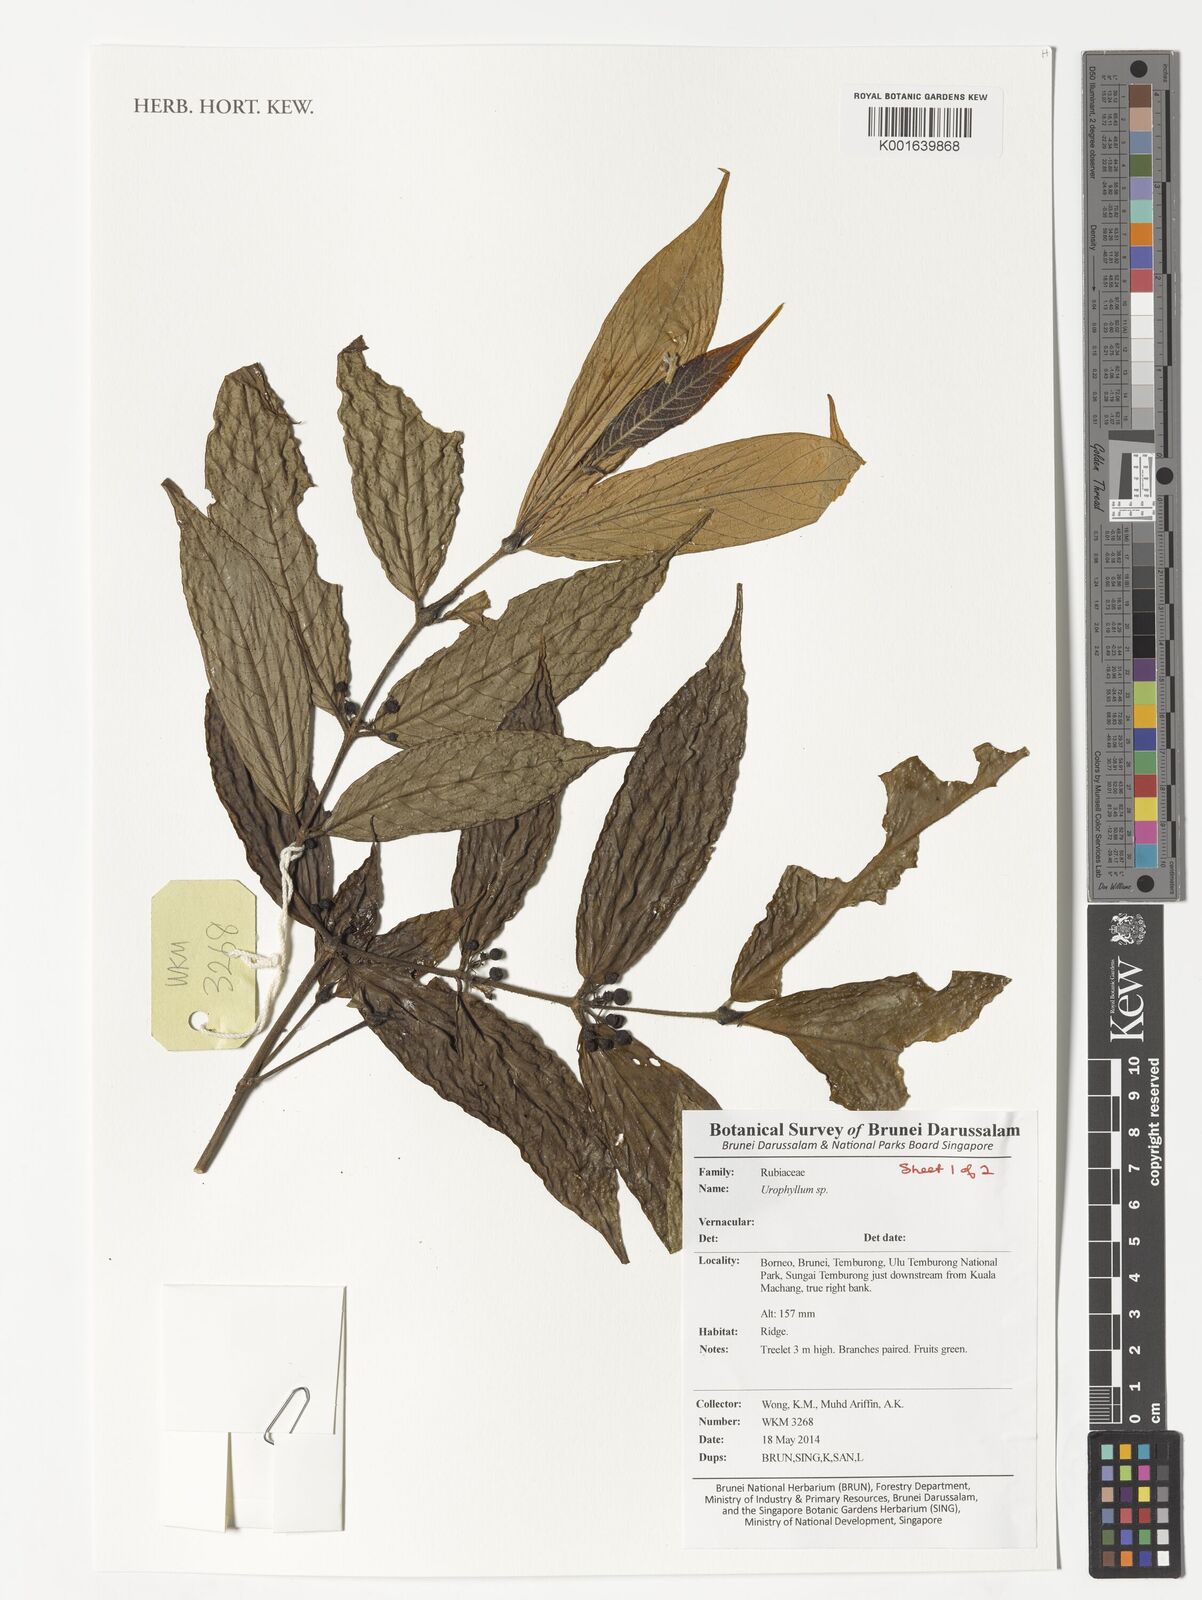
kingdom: Plantae
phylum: Tracheophyta
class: Magnoliopsida
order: Gentianales
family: Rubiaceae
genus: Urophyllum
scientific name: Urophyllum
